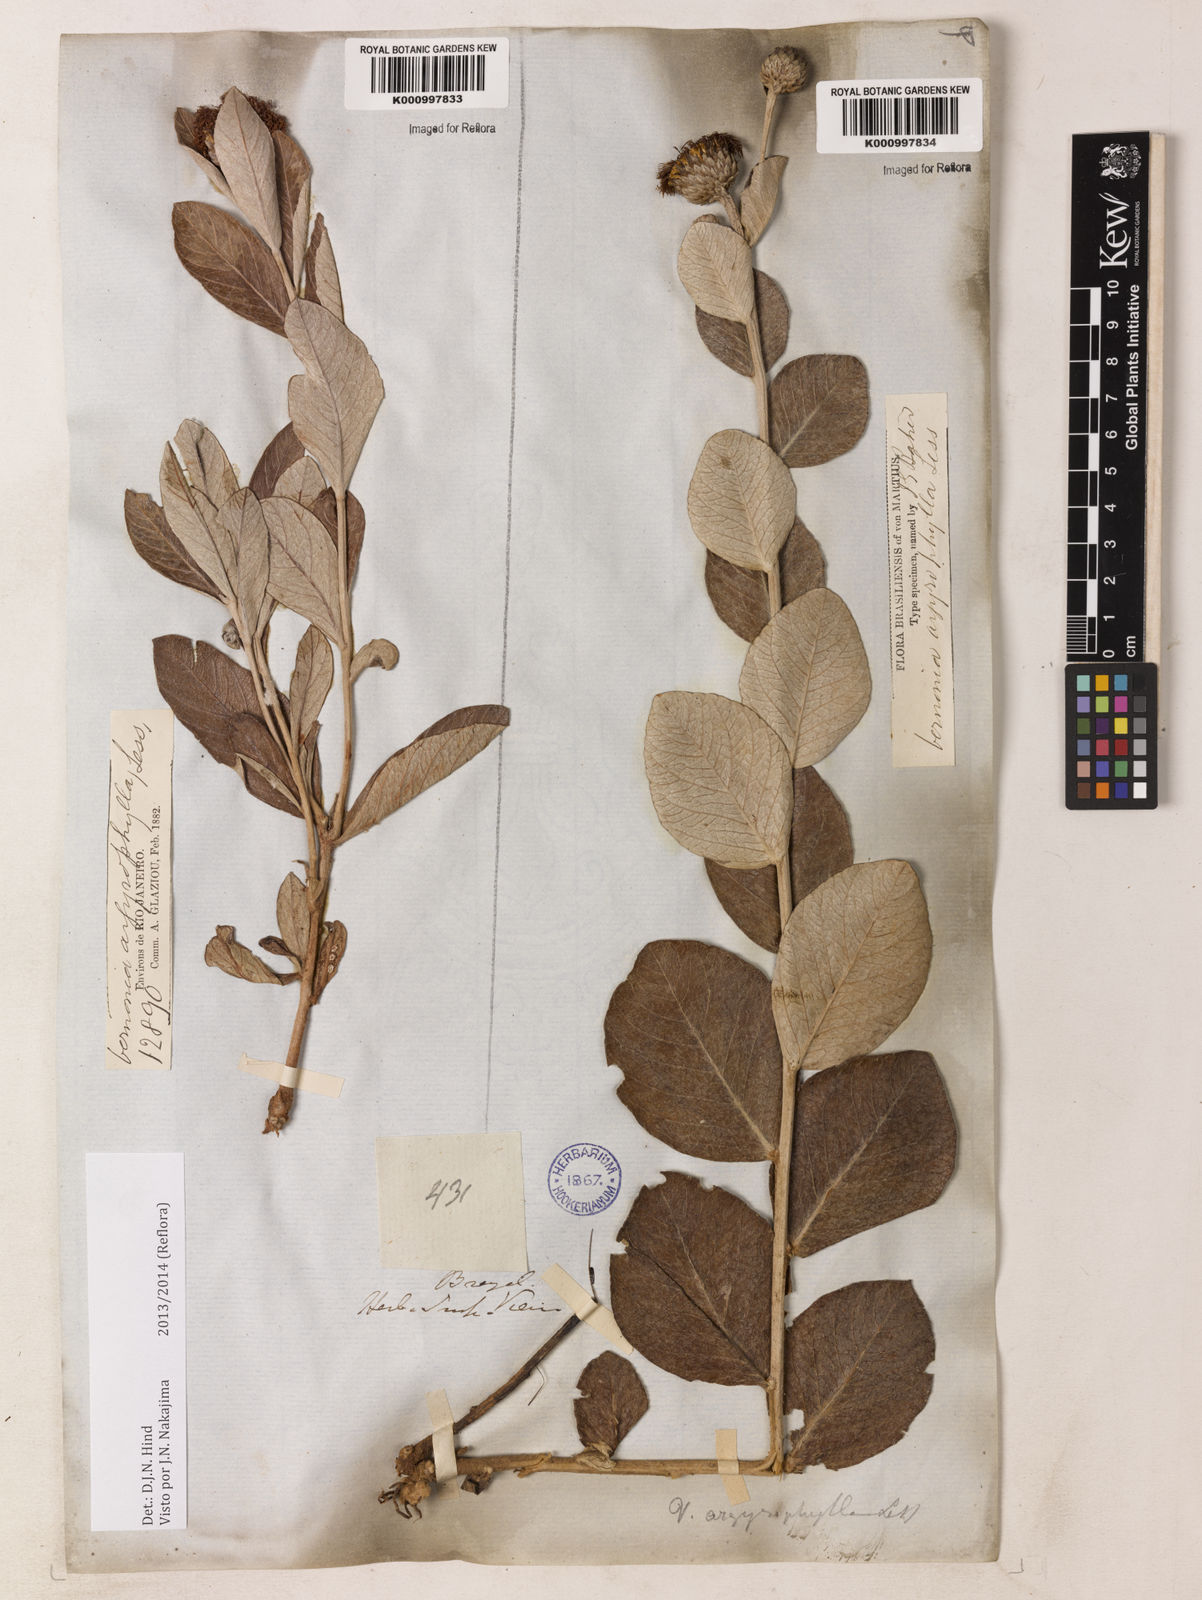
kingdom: Plantae
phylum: Tracheophyta
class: Magnoliopsida
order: Asterales
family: Asteraceae
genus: Lessingianthus
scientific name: Lessingianthus argyrophyllus
